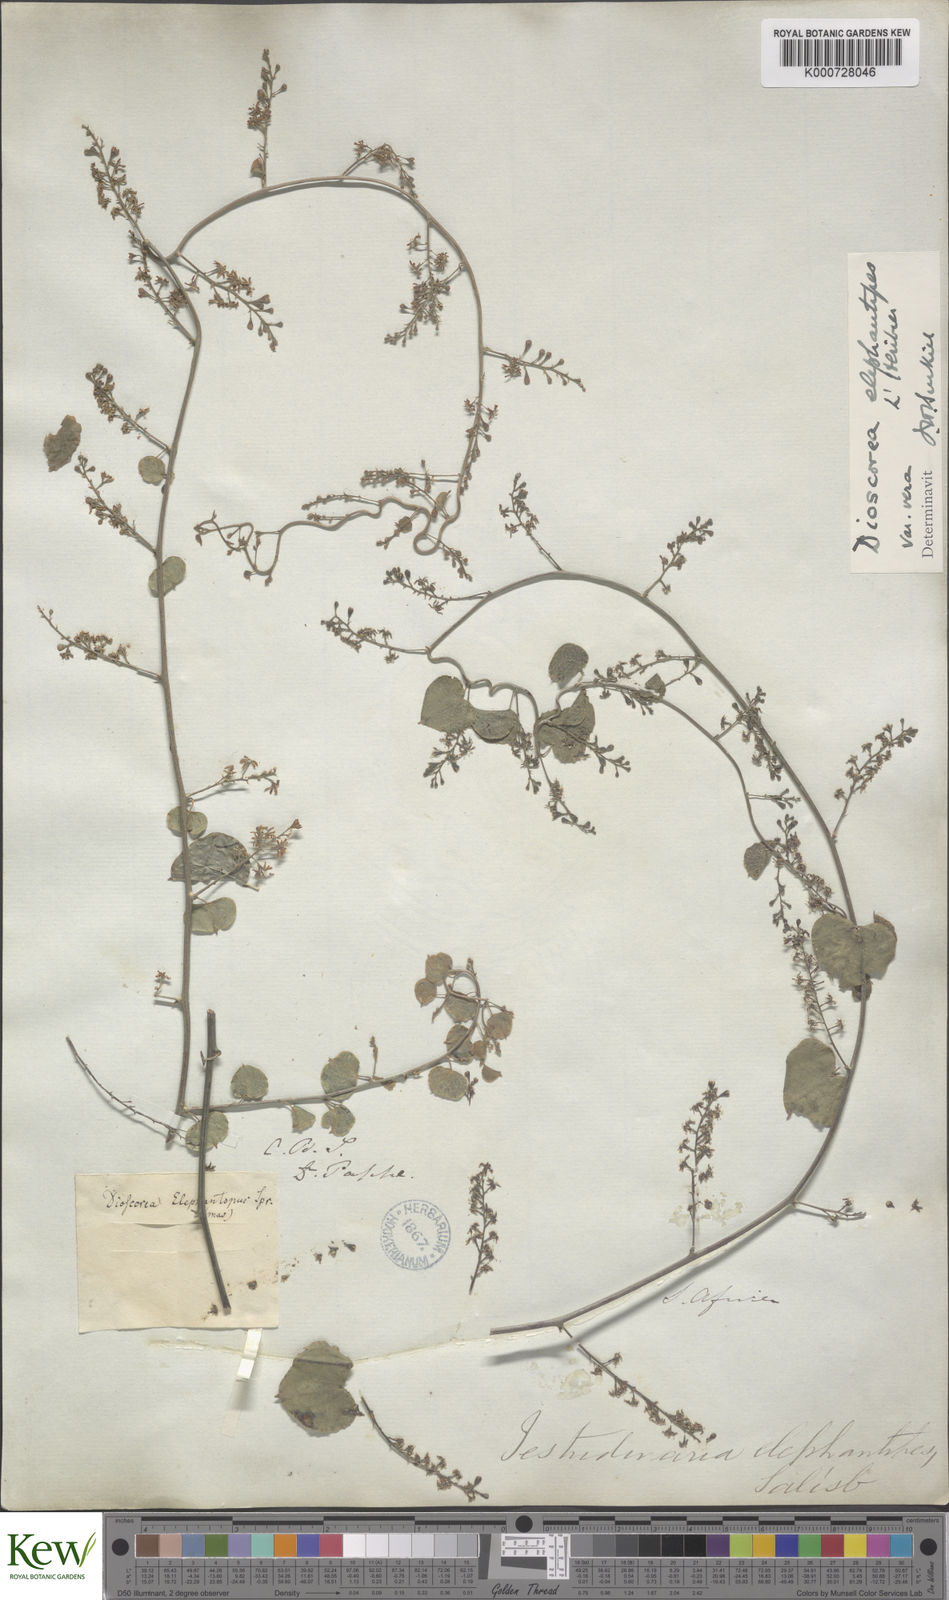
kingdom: Plantae
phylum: Tracheophyta
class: Liliopsida
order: Dioscoreales
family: Dioscoreaceae
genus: Dioscorea
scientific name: Dioscorea
